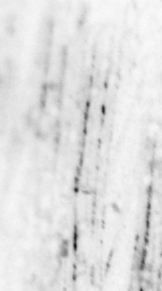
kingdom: Animalia
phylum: Chordata
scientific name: Chordata
